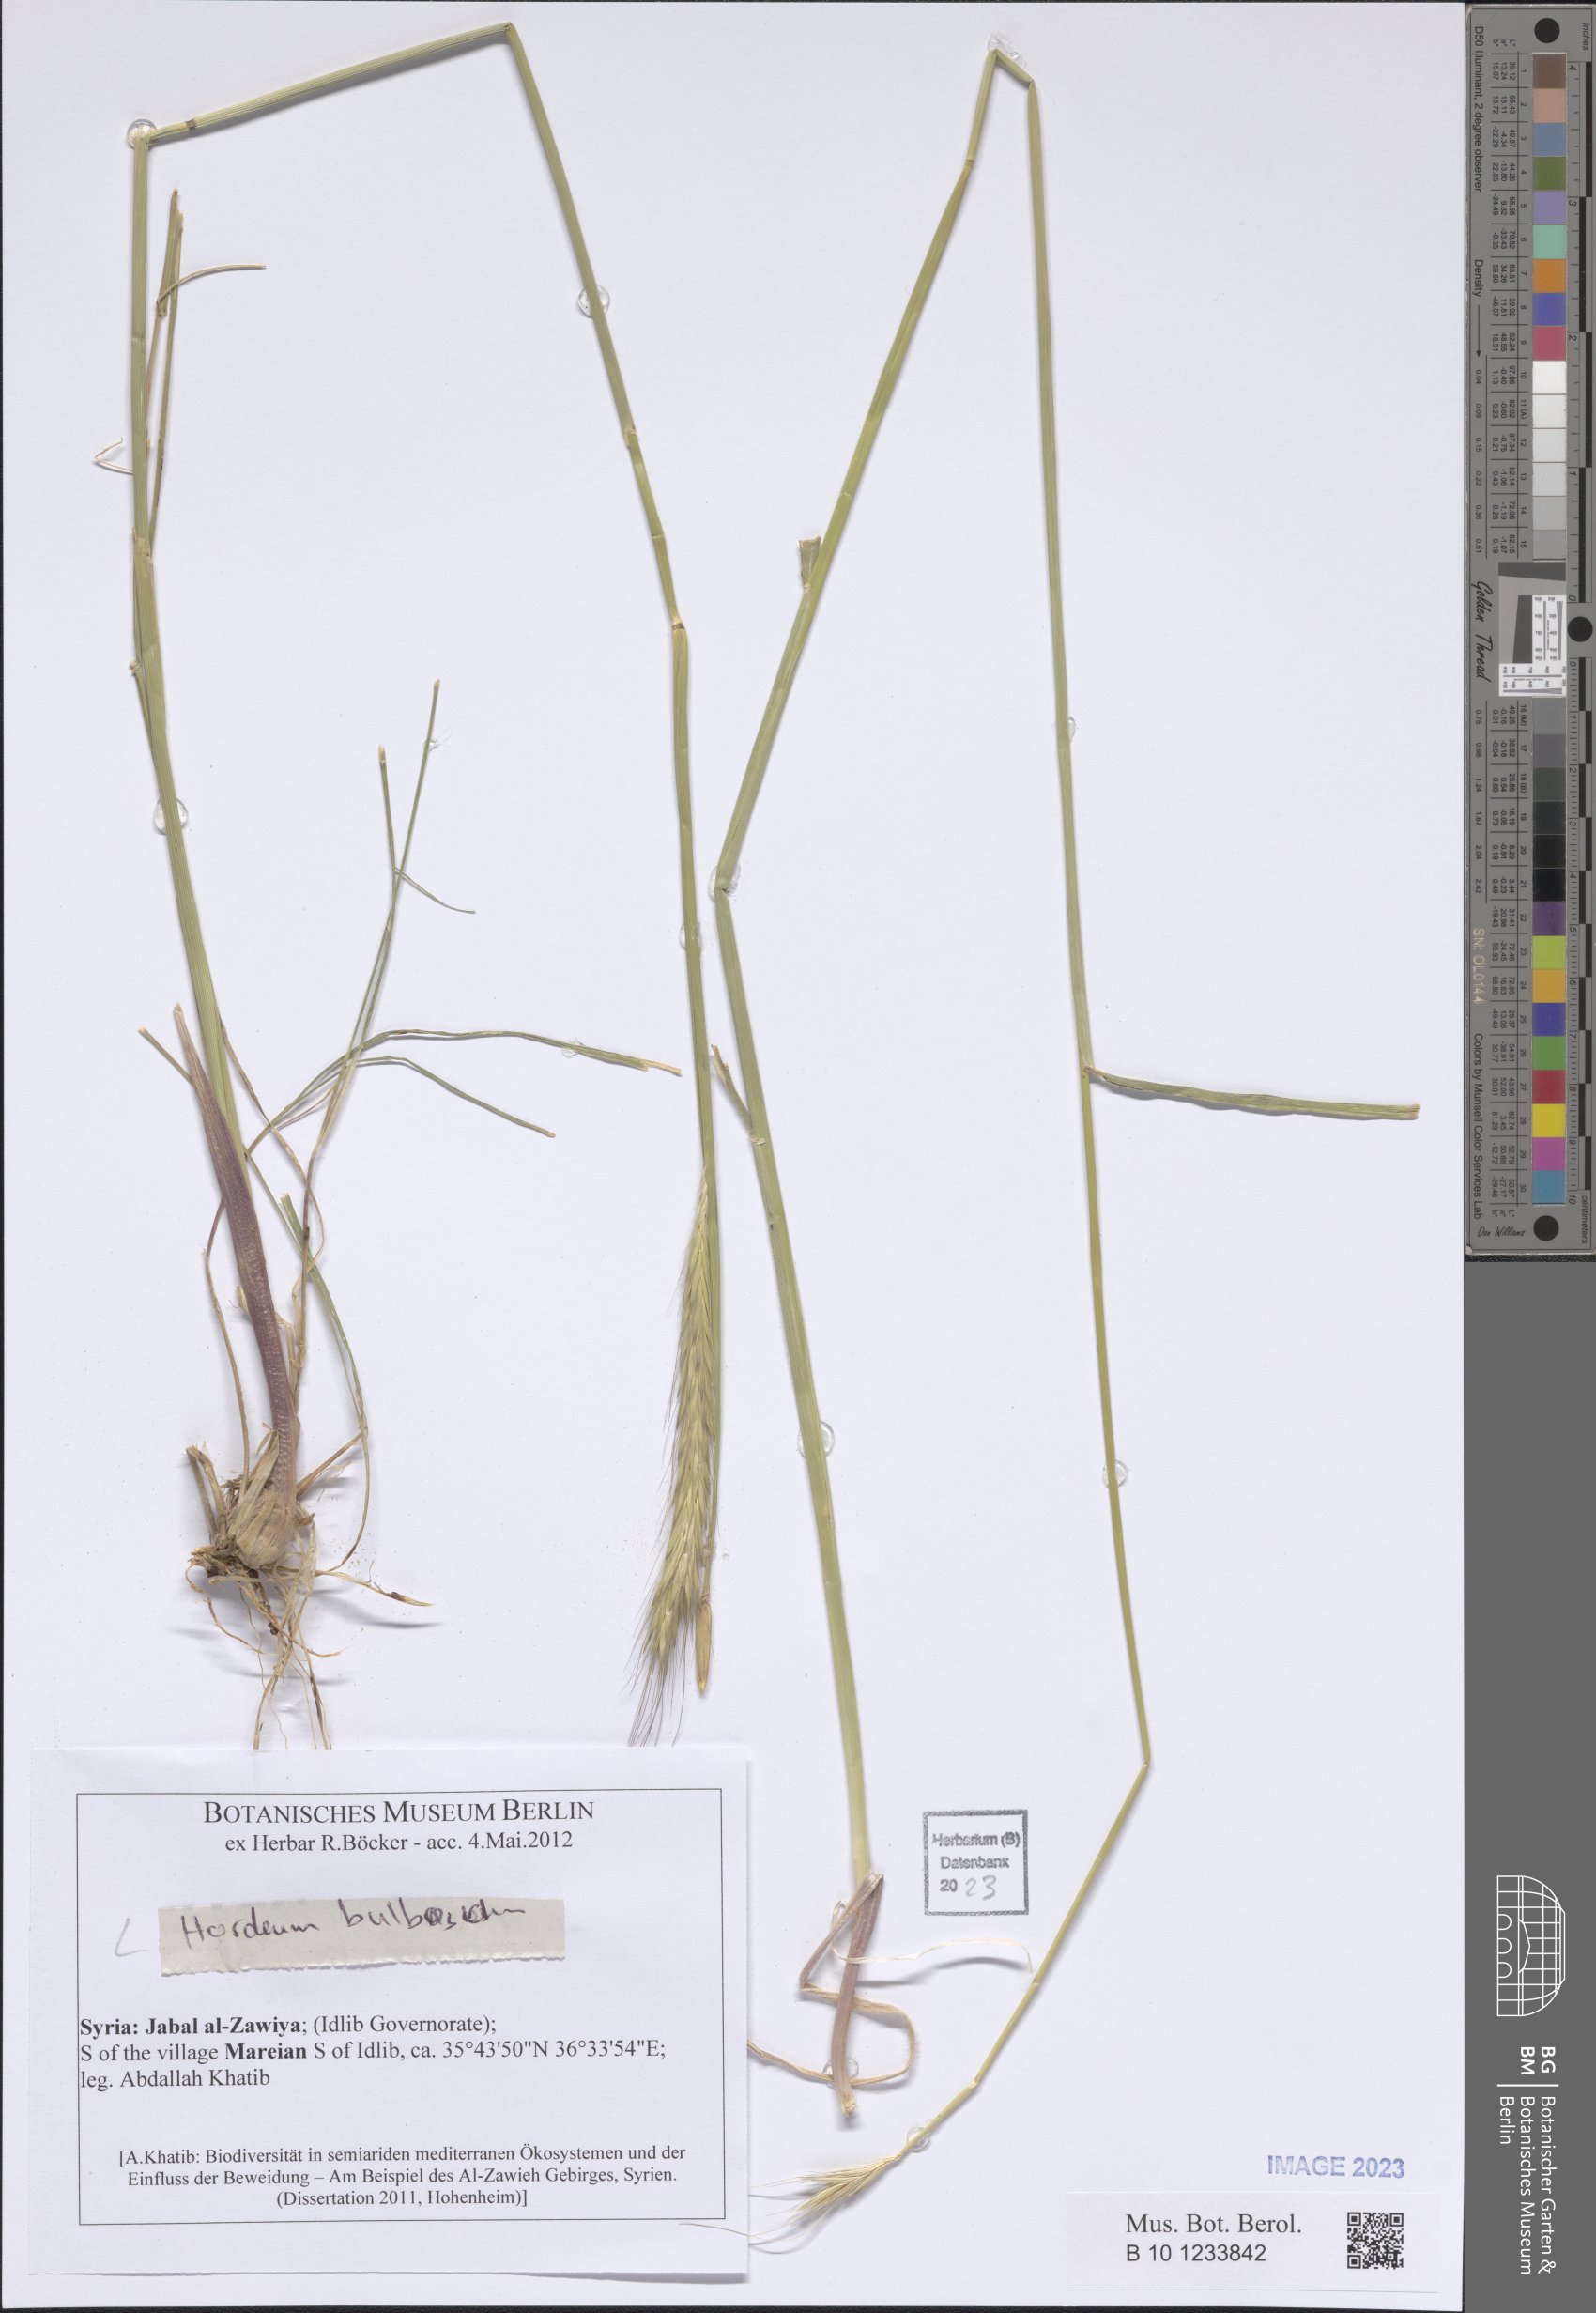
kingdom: Plantae
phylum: Tracheophyta
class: Liliopsida
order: Poales
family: Poaceae
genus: Hordeum
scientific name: Hordeum bulbosum
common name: Bulbous barley
